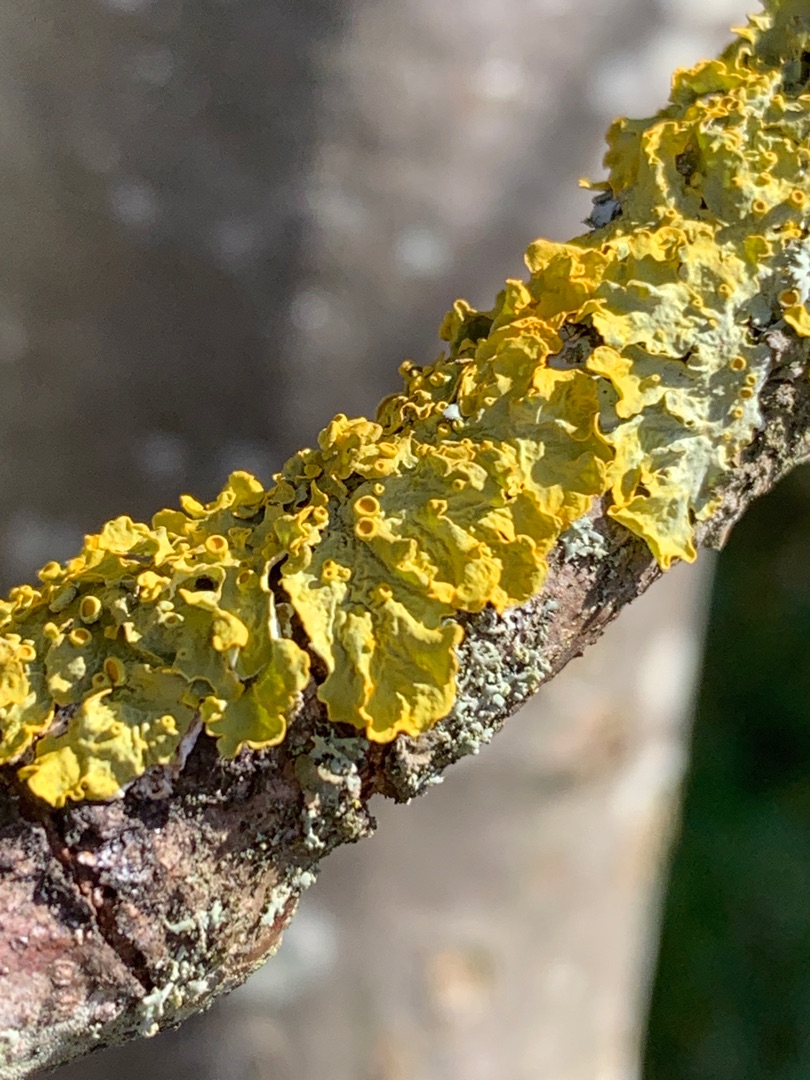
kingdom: Fungi
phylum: Ascomycota
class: Lecanoromycetes
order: Teloschistales
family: Teloschistaceae
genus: Xanthoria
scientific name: Xanthoria parietina
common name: Almindelig væggelav
